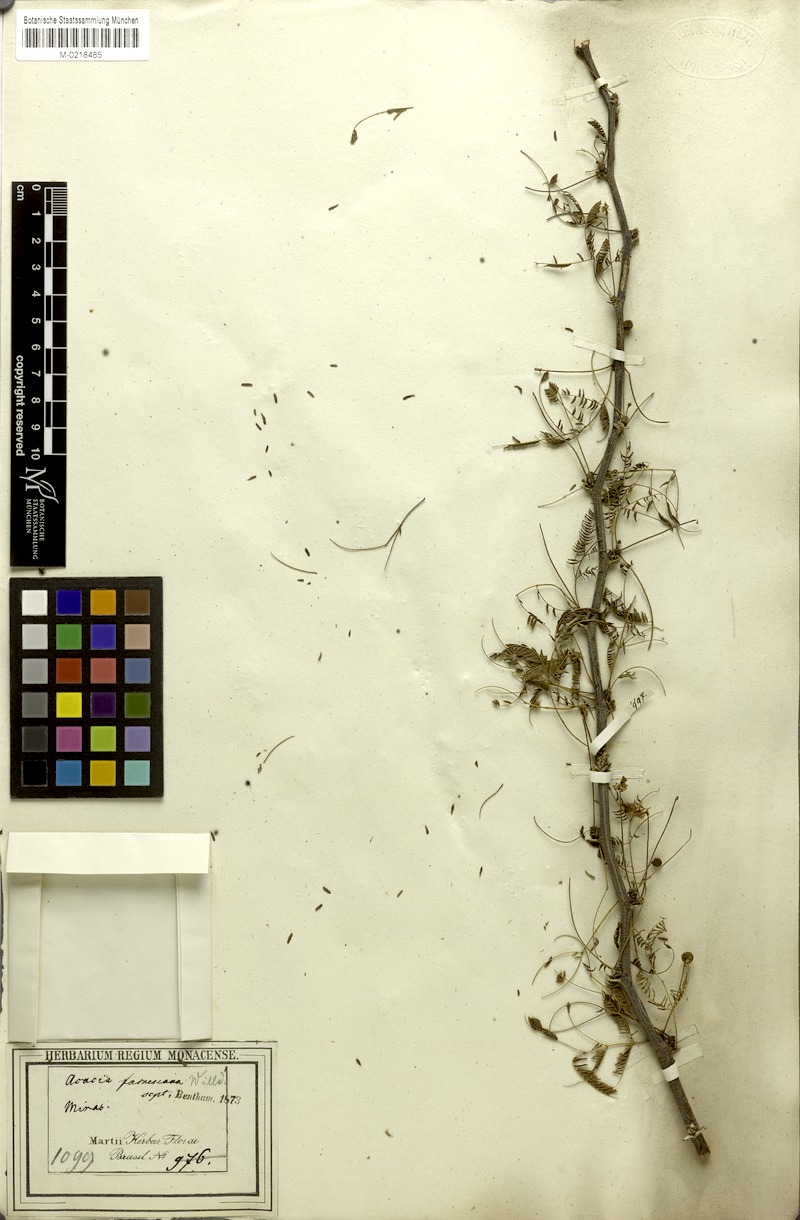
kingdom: Plantae
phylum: Tracheophyta
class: Magnoliopsida
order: Fabales
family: Fabaceae
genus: Vachellia
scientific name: Vachellia farnesiana
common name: Sweet acacia
